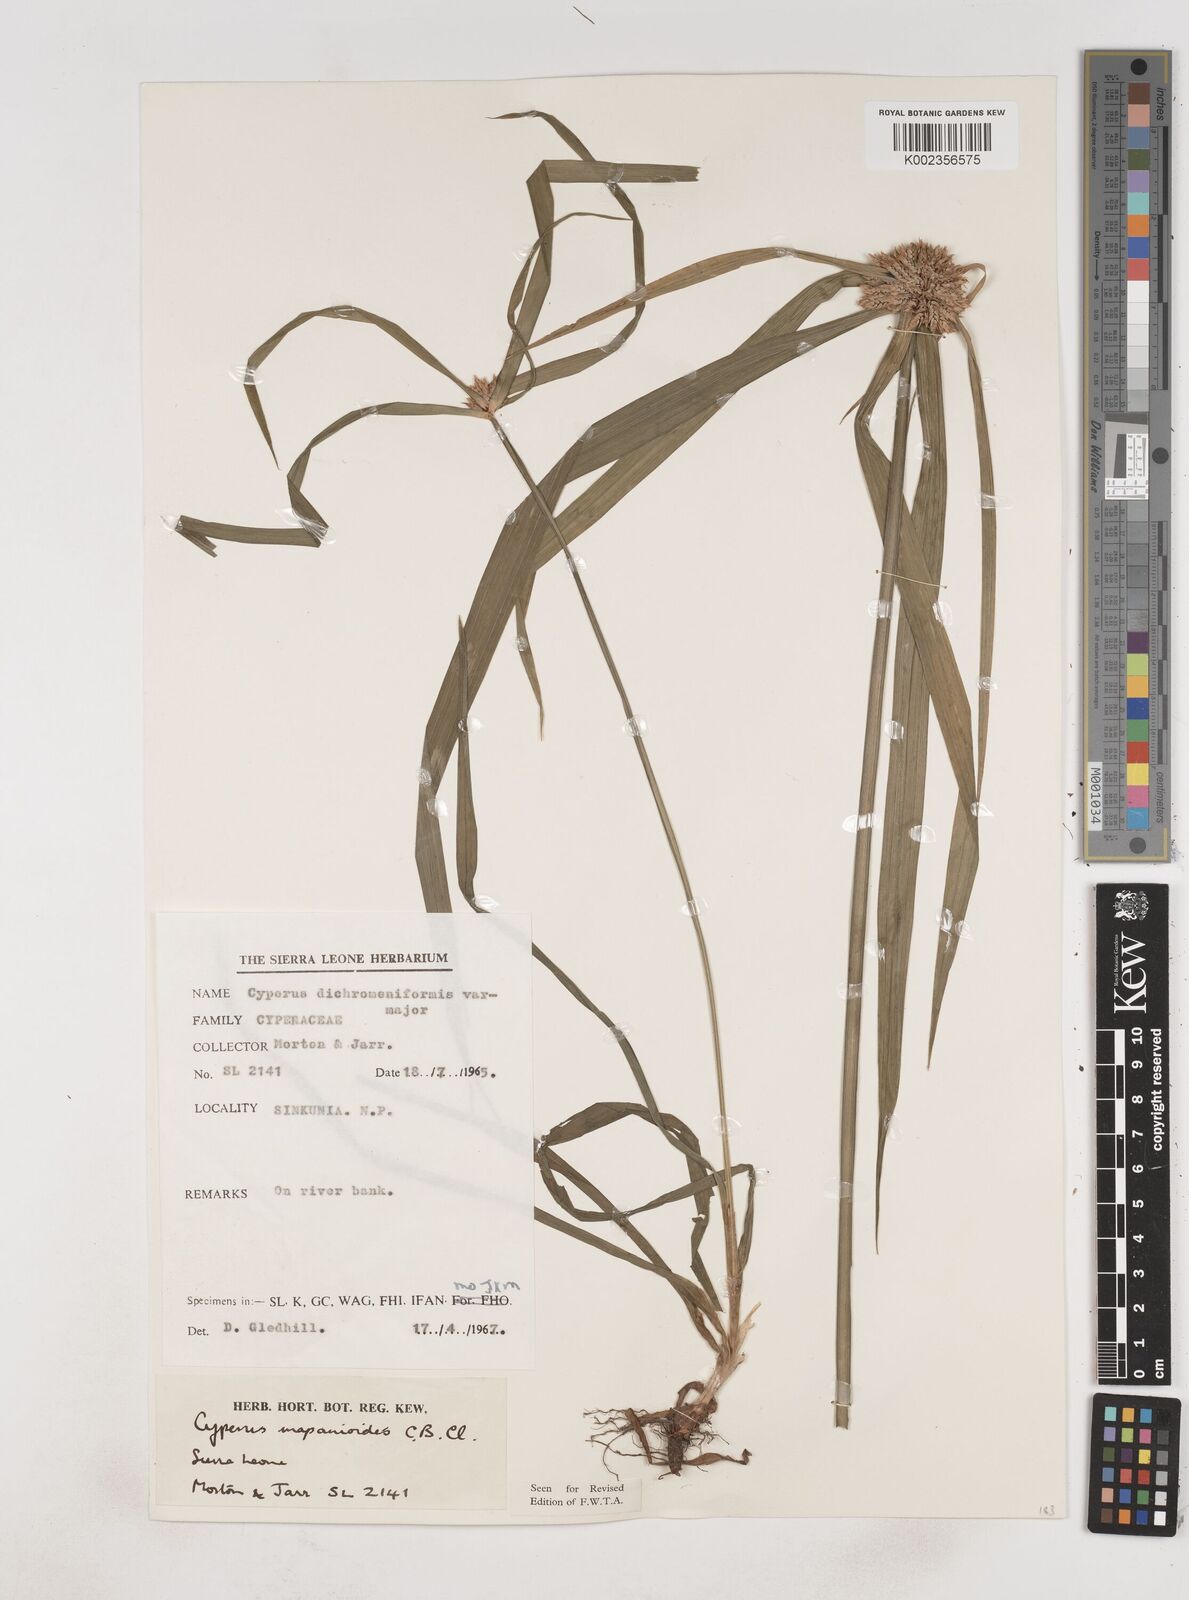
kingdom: Plantae
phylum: Tracheophyta
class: Liliopsida
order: Poales
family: Cyperaceae
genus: Cyperus
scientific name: Cyperus mapanioides
